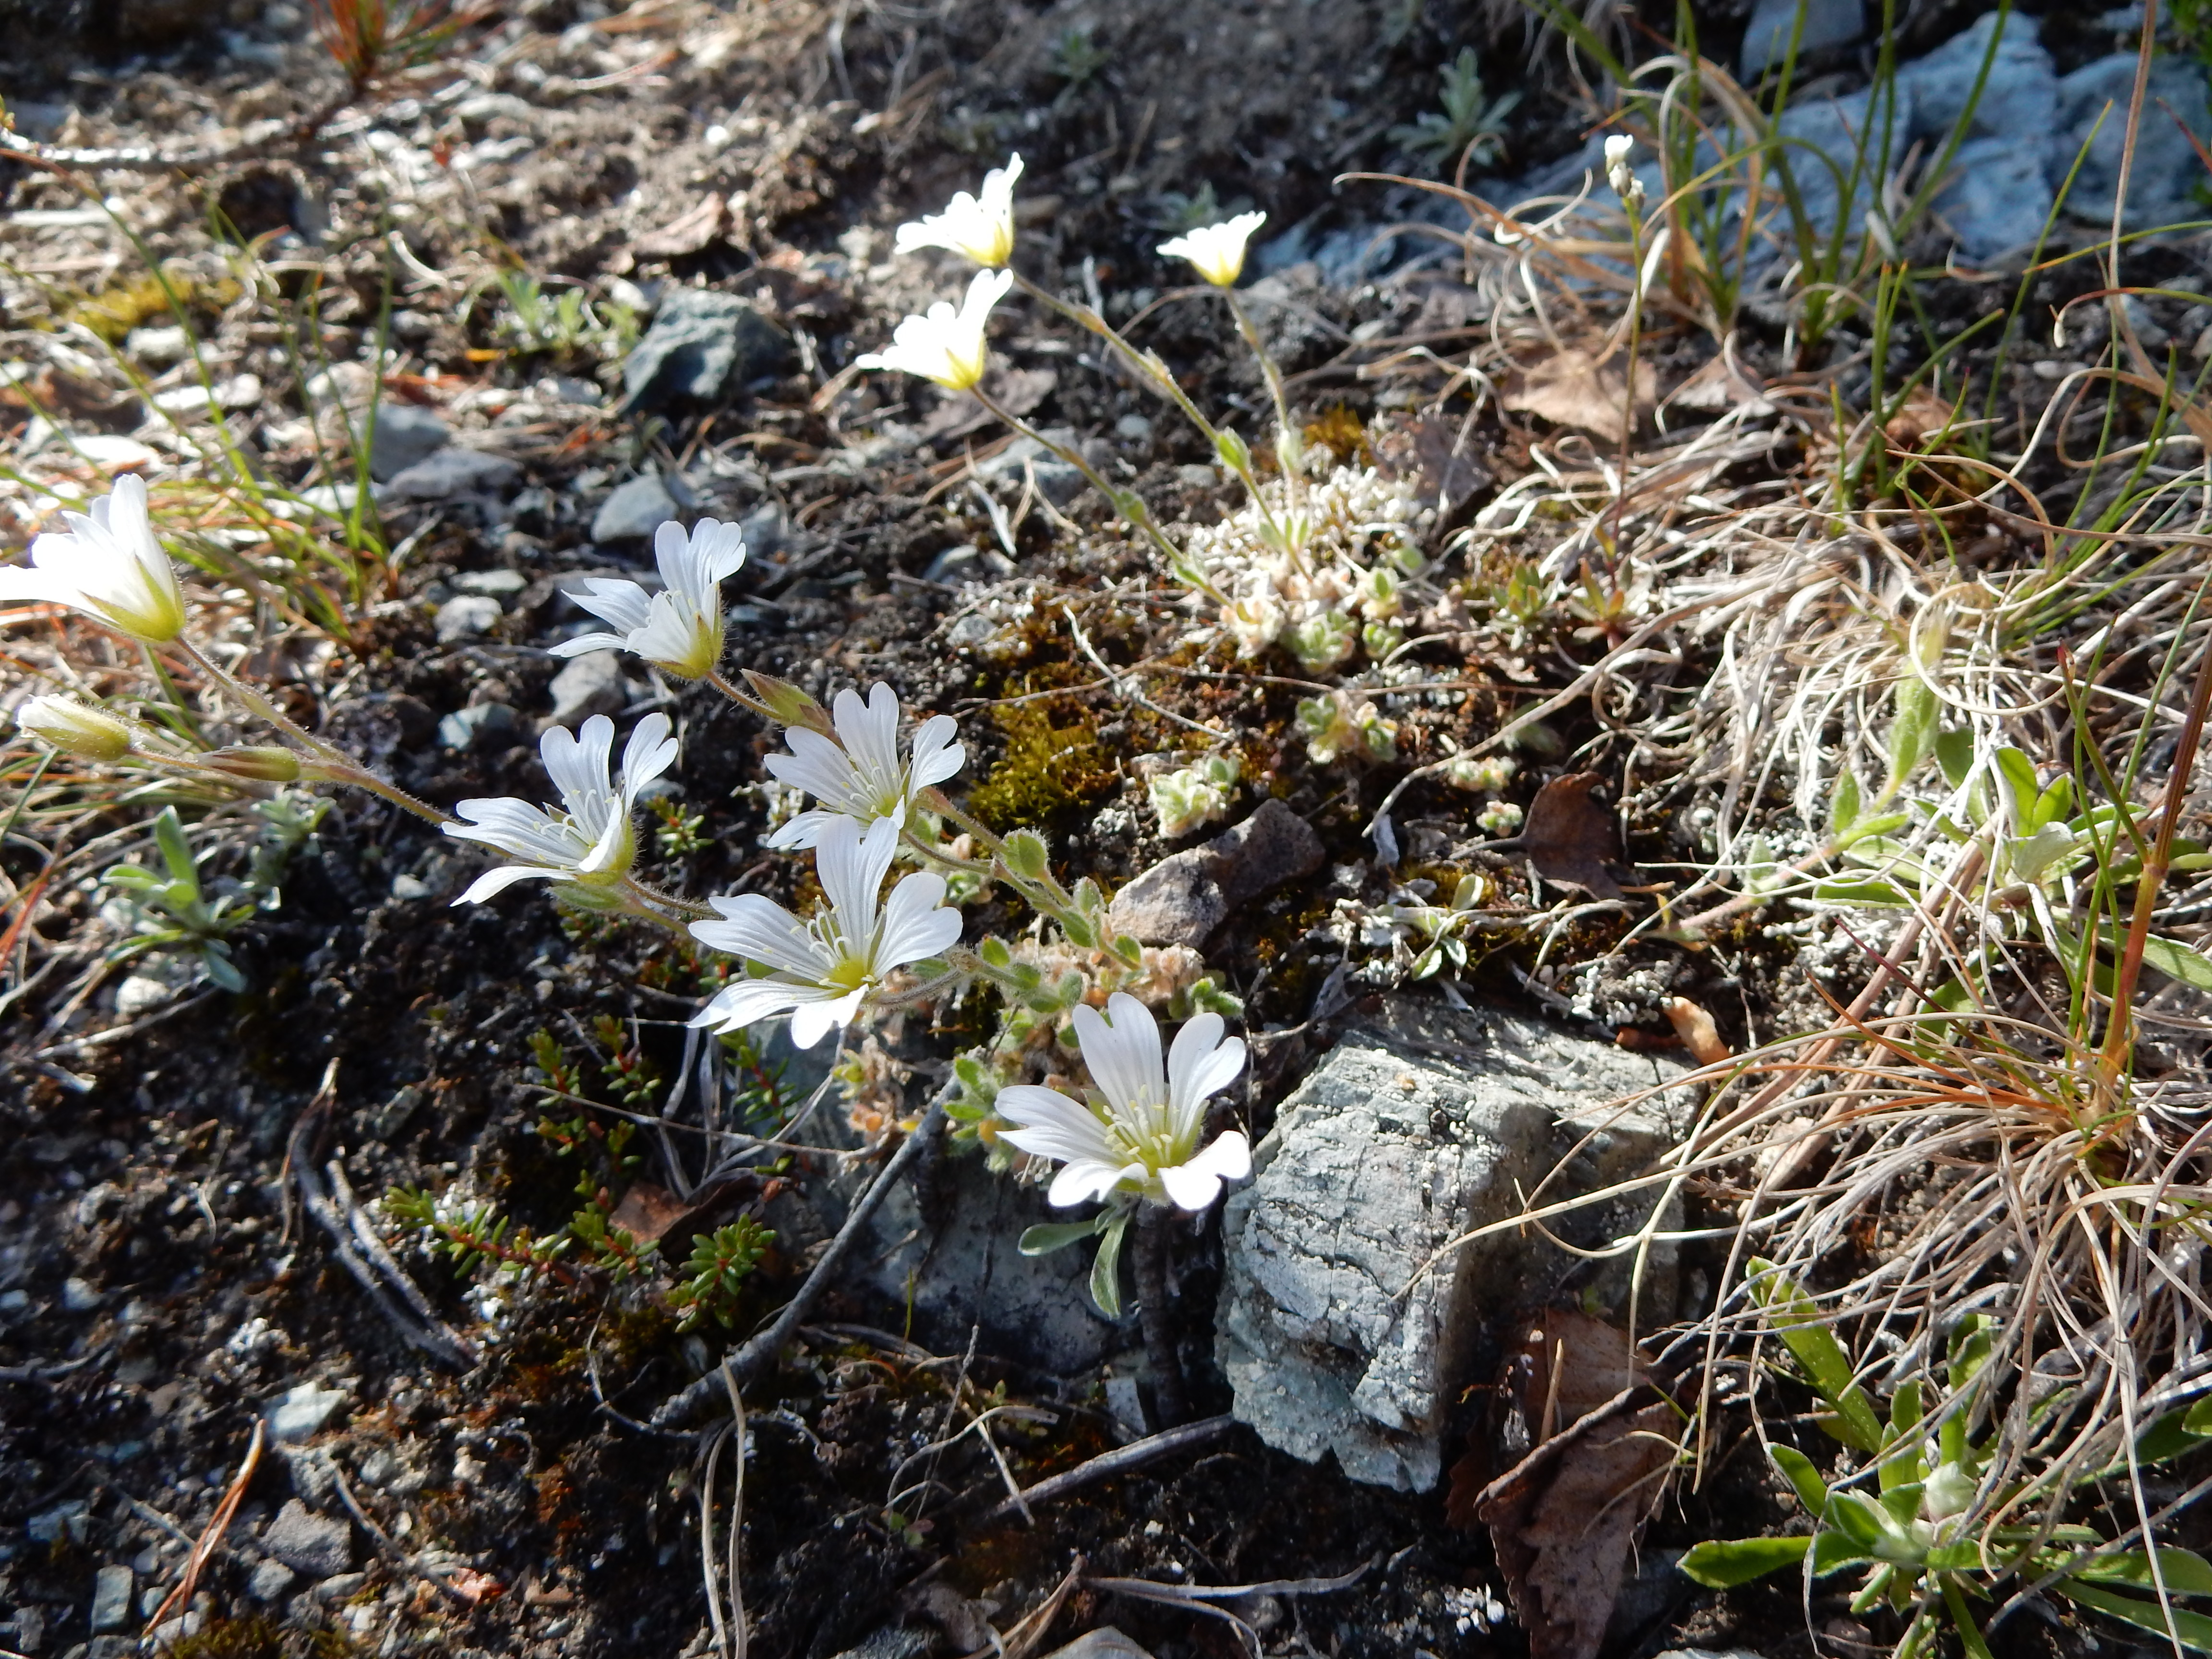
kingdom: Plantae
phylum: Tracheophyta
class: Magnoliopsida
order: Caryophyllales
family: Caryophyllaceae
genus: Cerastium
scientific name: Cerastium alpinum
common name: Alpine mouse-ear
